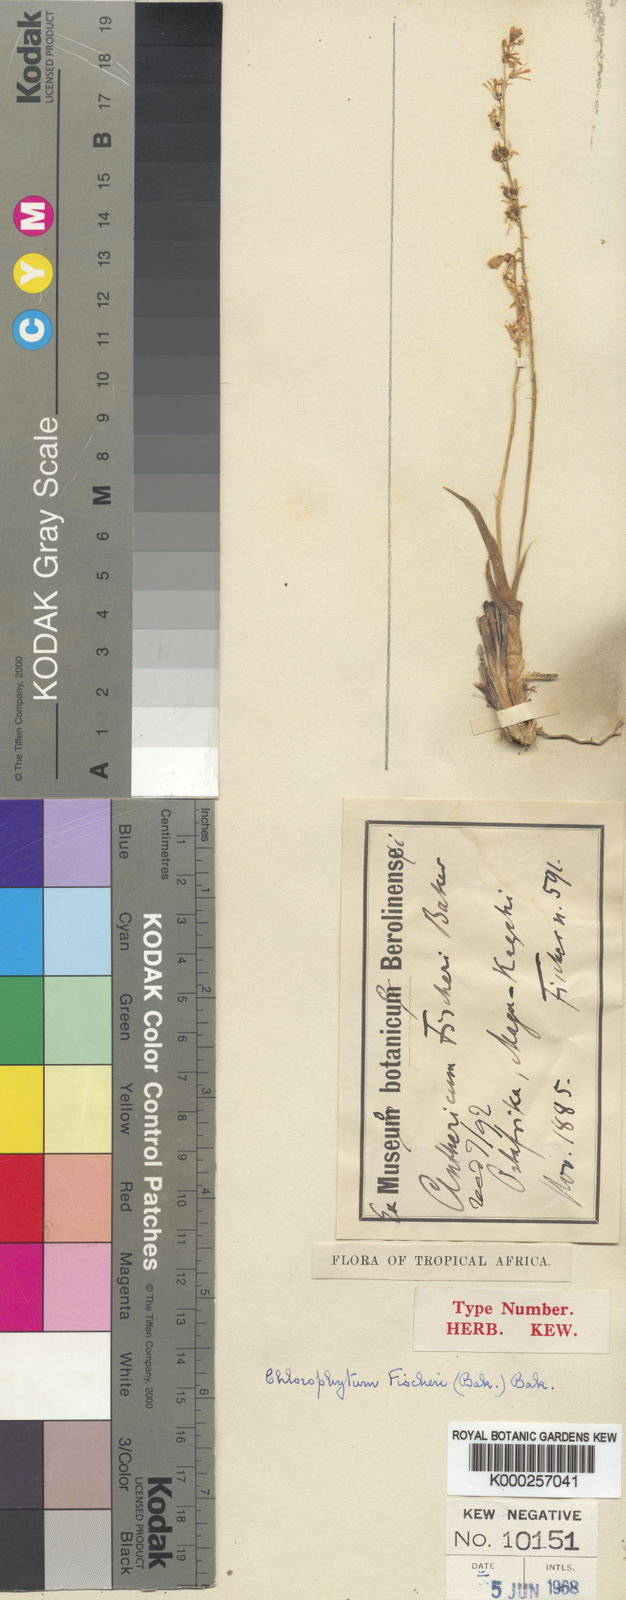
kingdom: Plantae
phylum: Tracheophyta
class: Liliopsida
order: Asparagales
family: Asparagaceae
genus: Chlorophytum
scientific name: Chlorophytum fischeri
